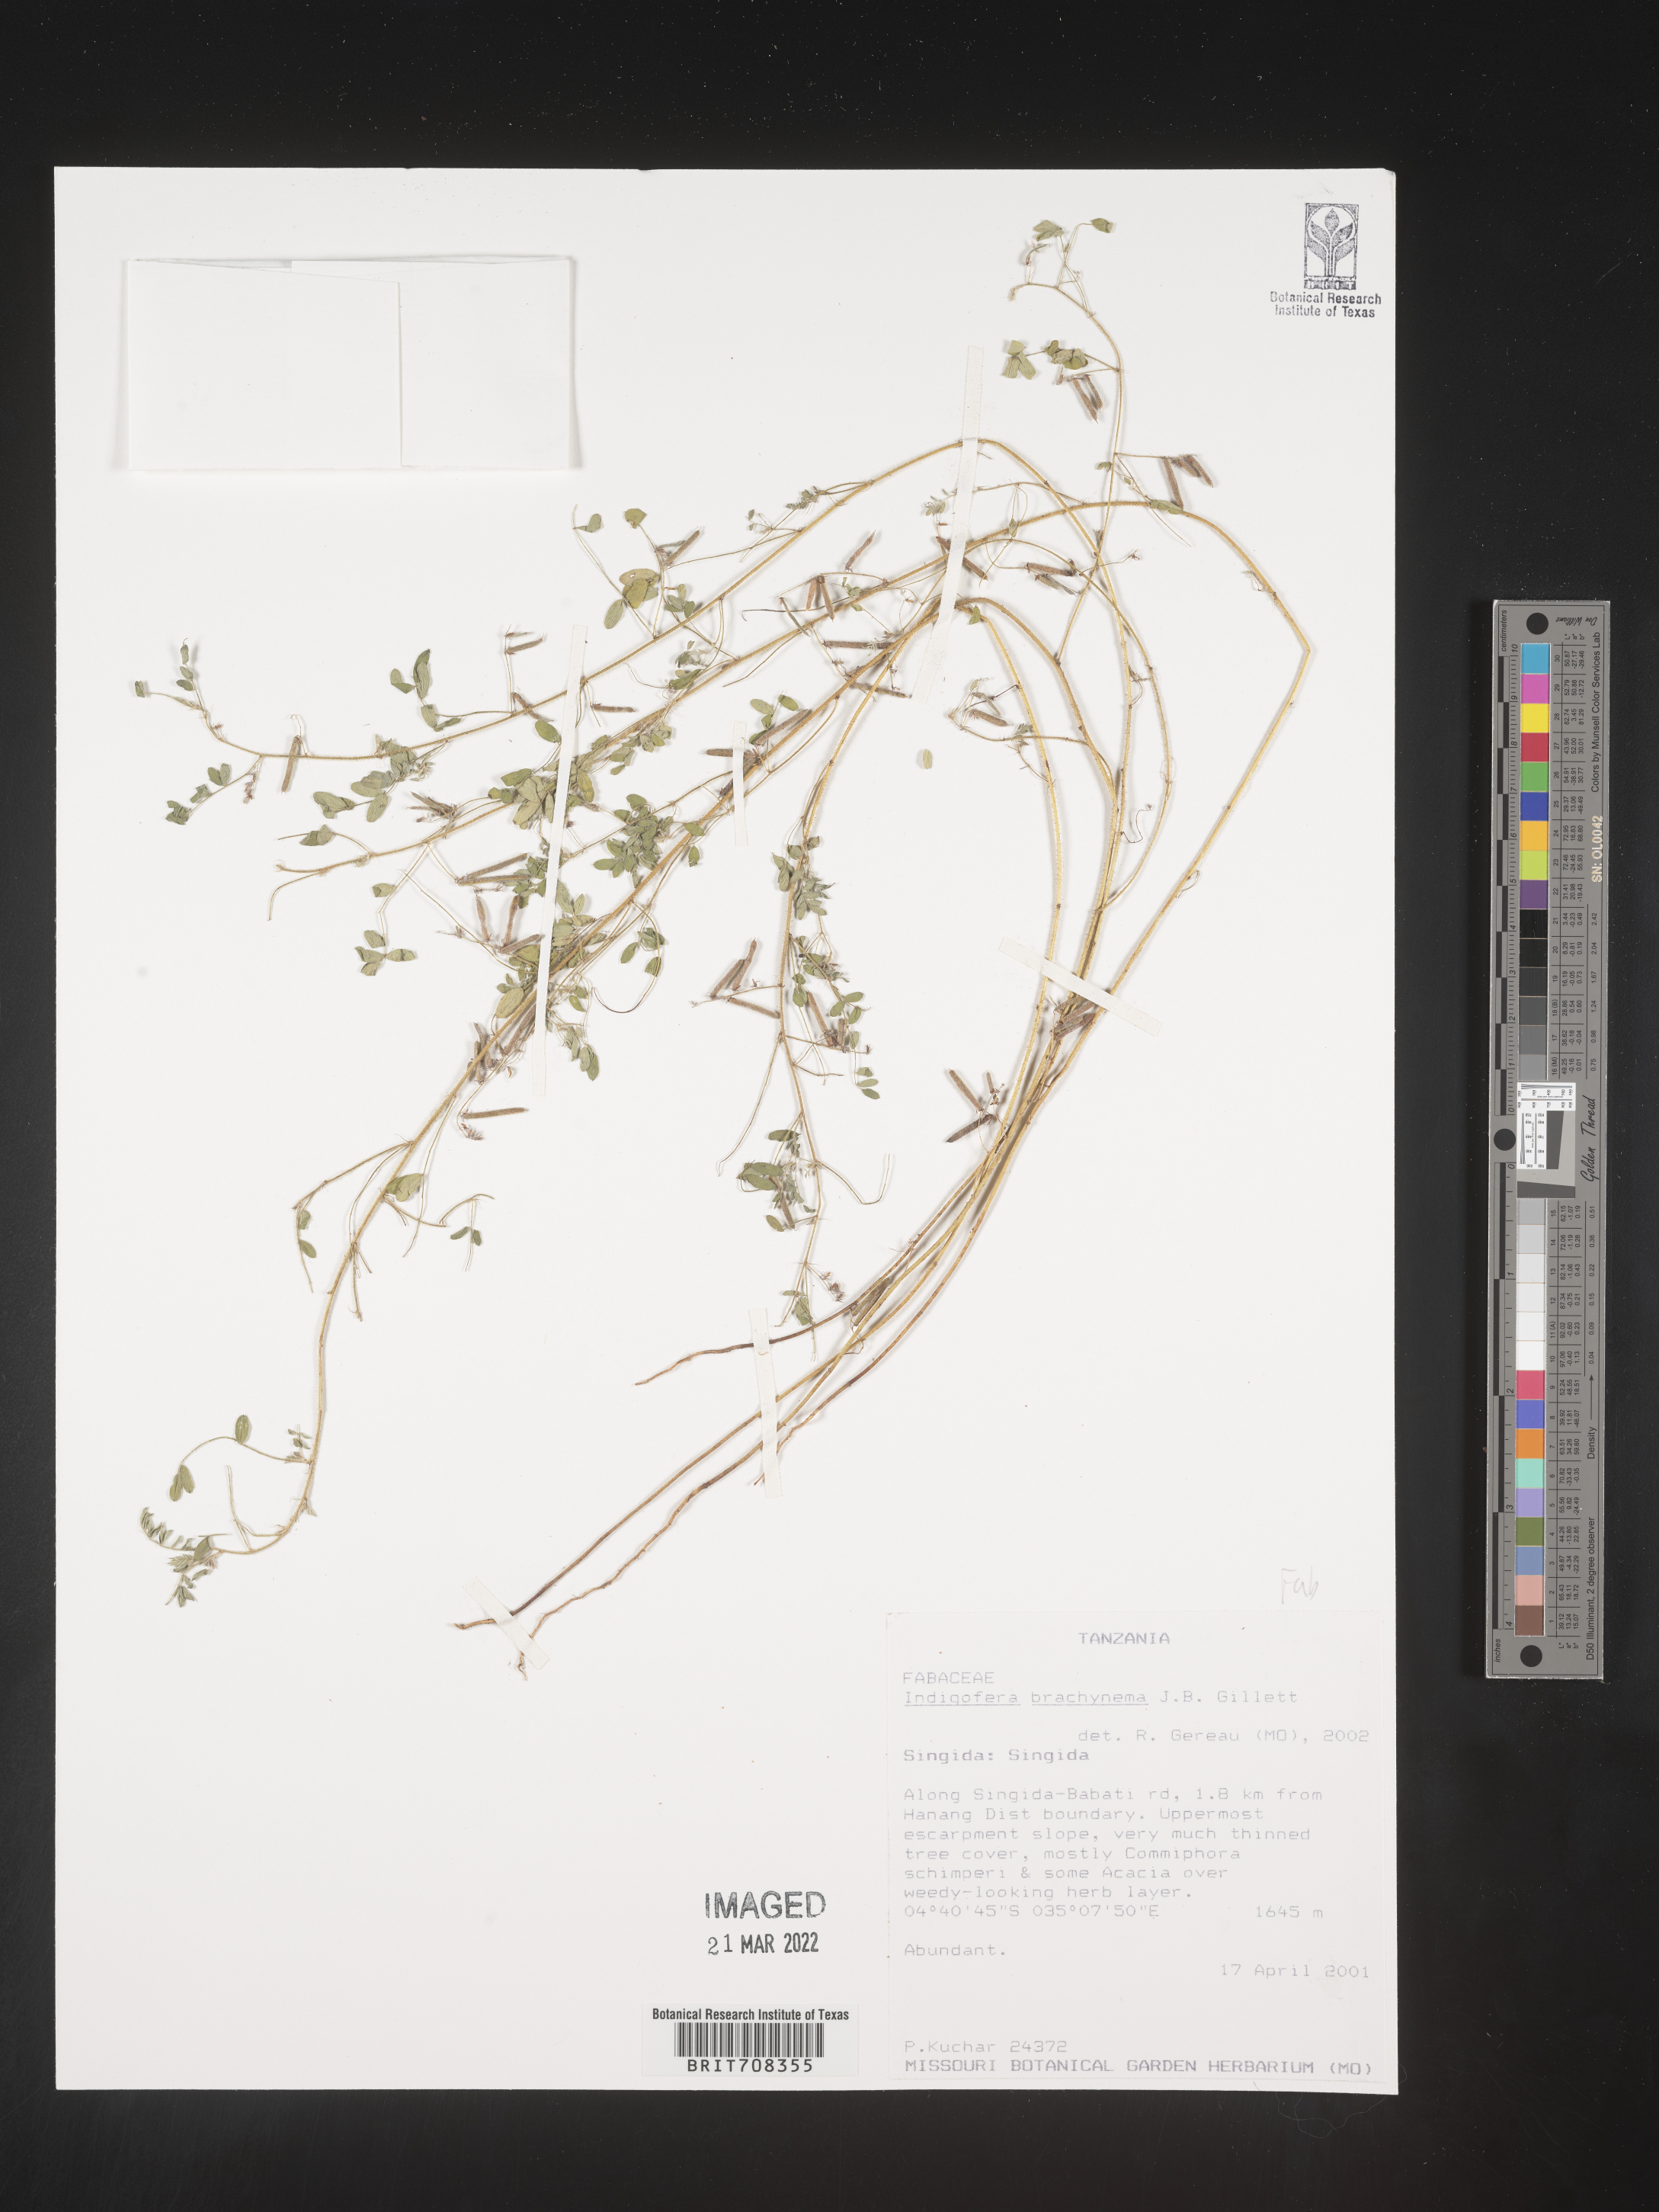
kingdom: Plantae
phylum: Tracheophyta
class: Magnoliopsida
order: Fabales
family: Fabaceae
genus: Indigofera
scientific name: Indigofera
